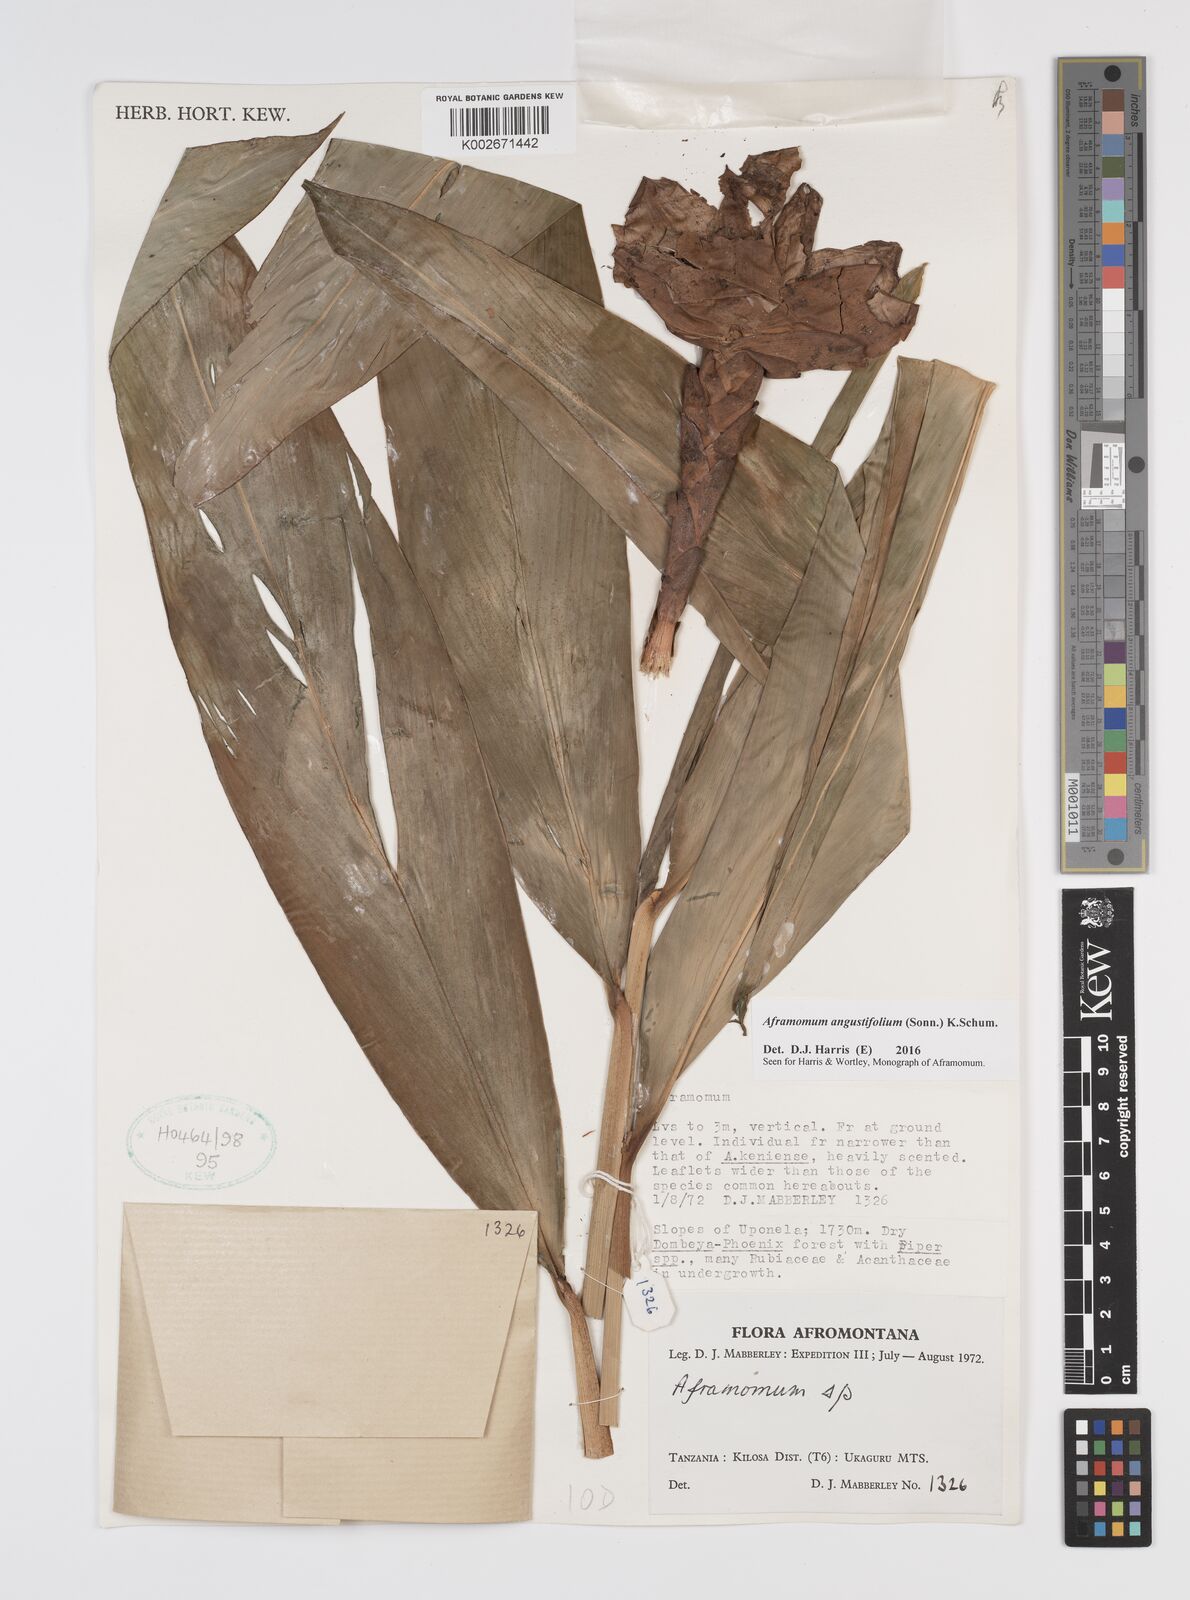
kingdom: Plantae
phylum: Tracheophyta
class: Liliopsida
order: Zingiberales
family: Zingiberaceae
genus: Aframomum
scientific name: Aframomum angustifolium
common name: Guinea grains
